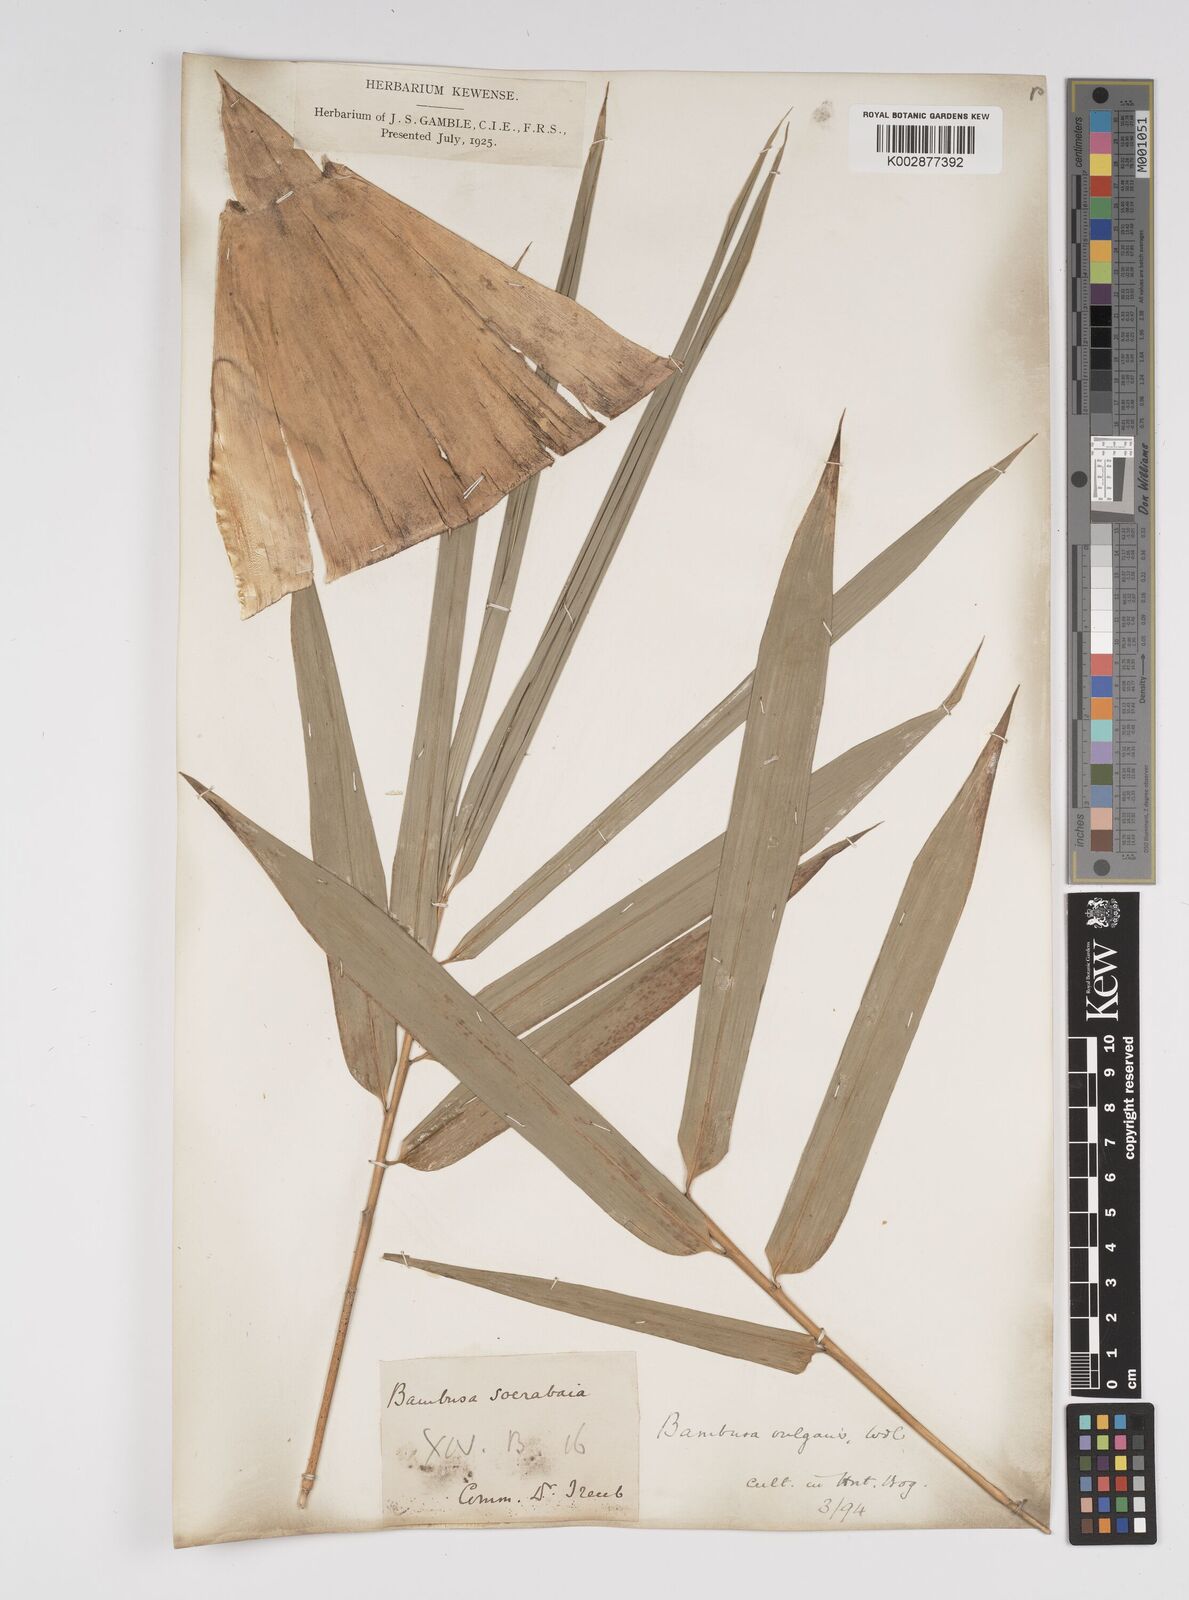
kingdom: Plantae
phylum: Tracheophyta
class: Liliopsida
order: Poales
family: Poaceae
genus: Bambusa
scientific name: Bambusa vulgaris
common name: Common bamboo
